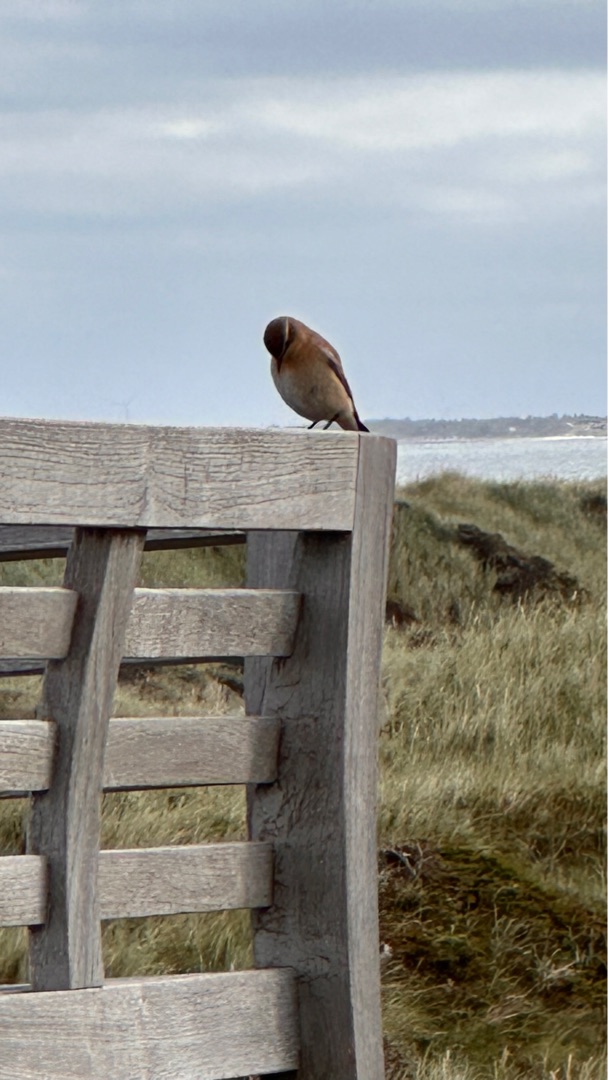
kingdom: Animalia
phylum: Chordata
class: Aves
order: Passeriformes
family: Muscicapidae
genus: Oenanthe
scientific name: Oenanthe oenanthe
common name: Stenpikker
